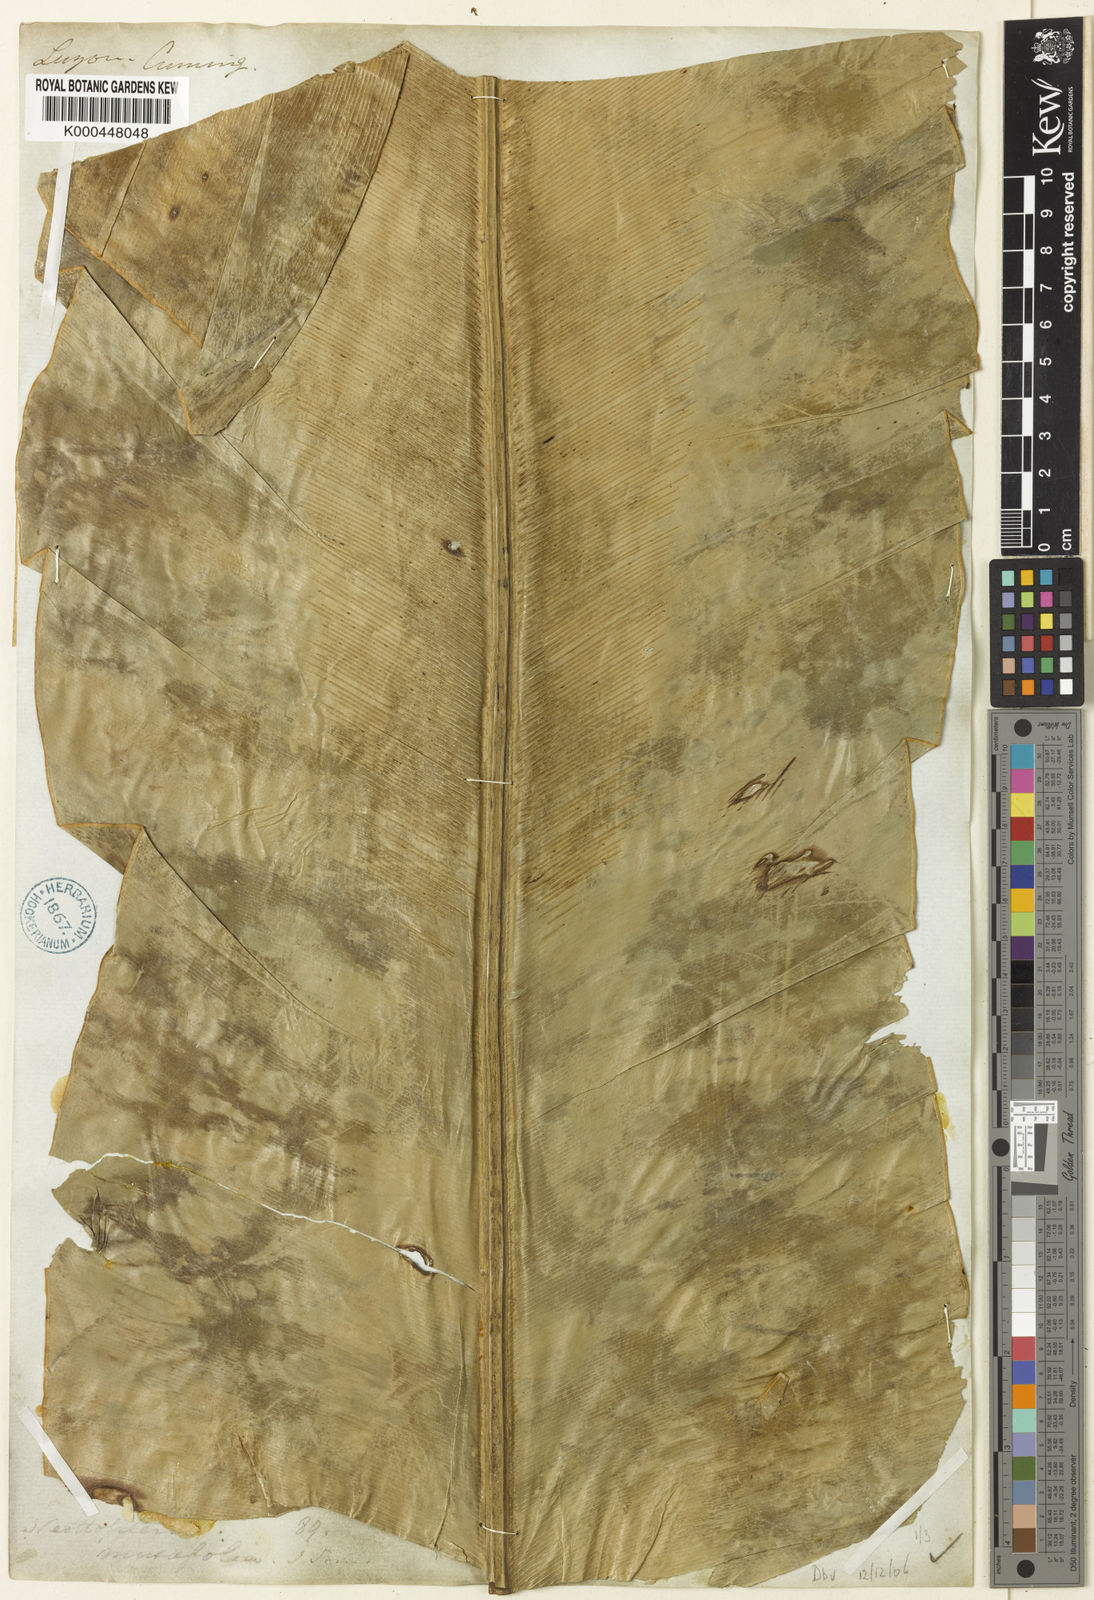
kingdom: Plantae
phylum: Tracheophyta
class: Polypodiopsida
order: Polypodiales
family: Aspleniaceae
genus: Asplenium
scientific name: Asplenium musifolium
